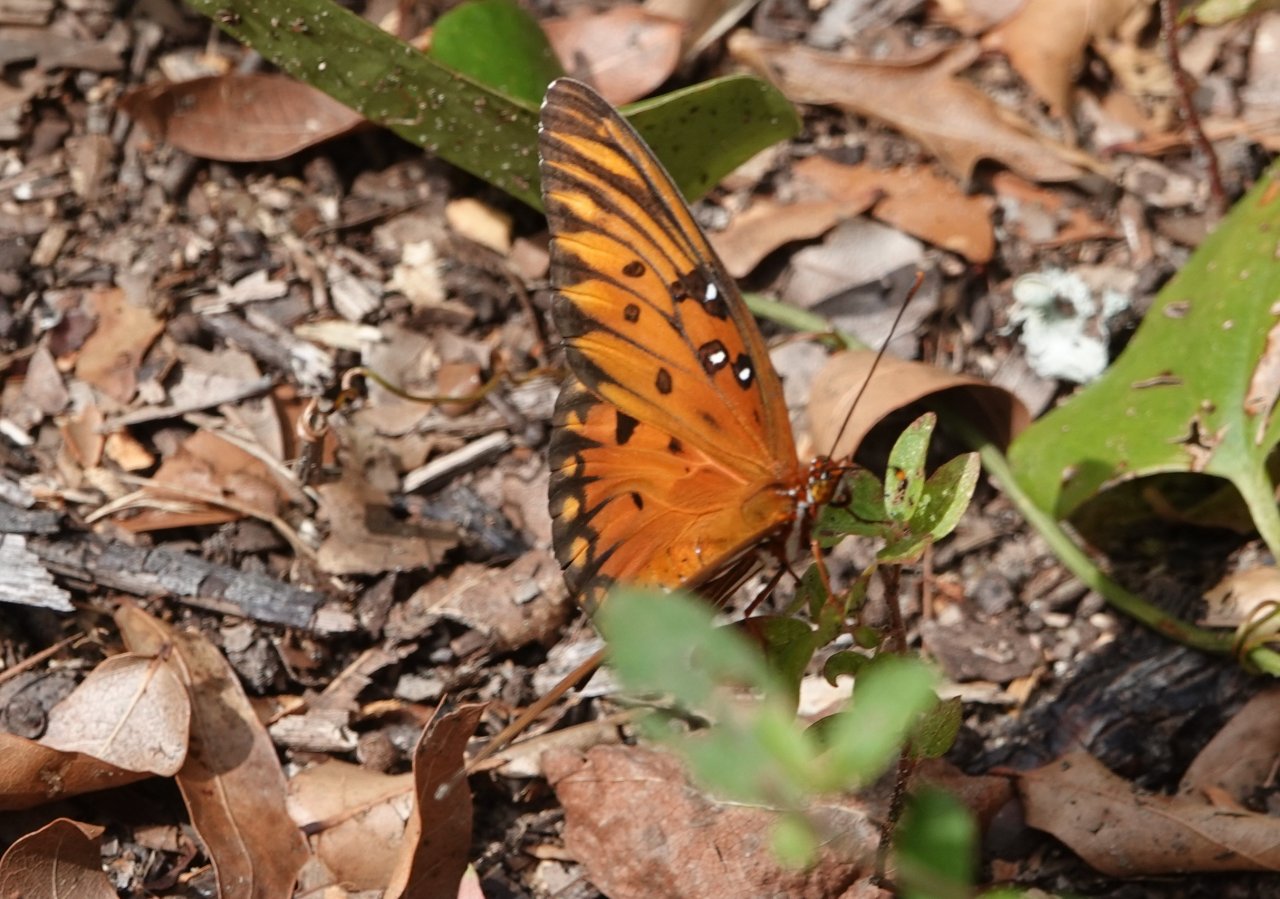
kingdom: Animalia
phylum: Arthropoda
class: Insecta
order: Lepidoptera
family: Nymphalidae
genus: Dione
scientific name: Dione vanillae
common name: Gulf Fritillary
